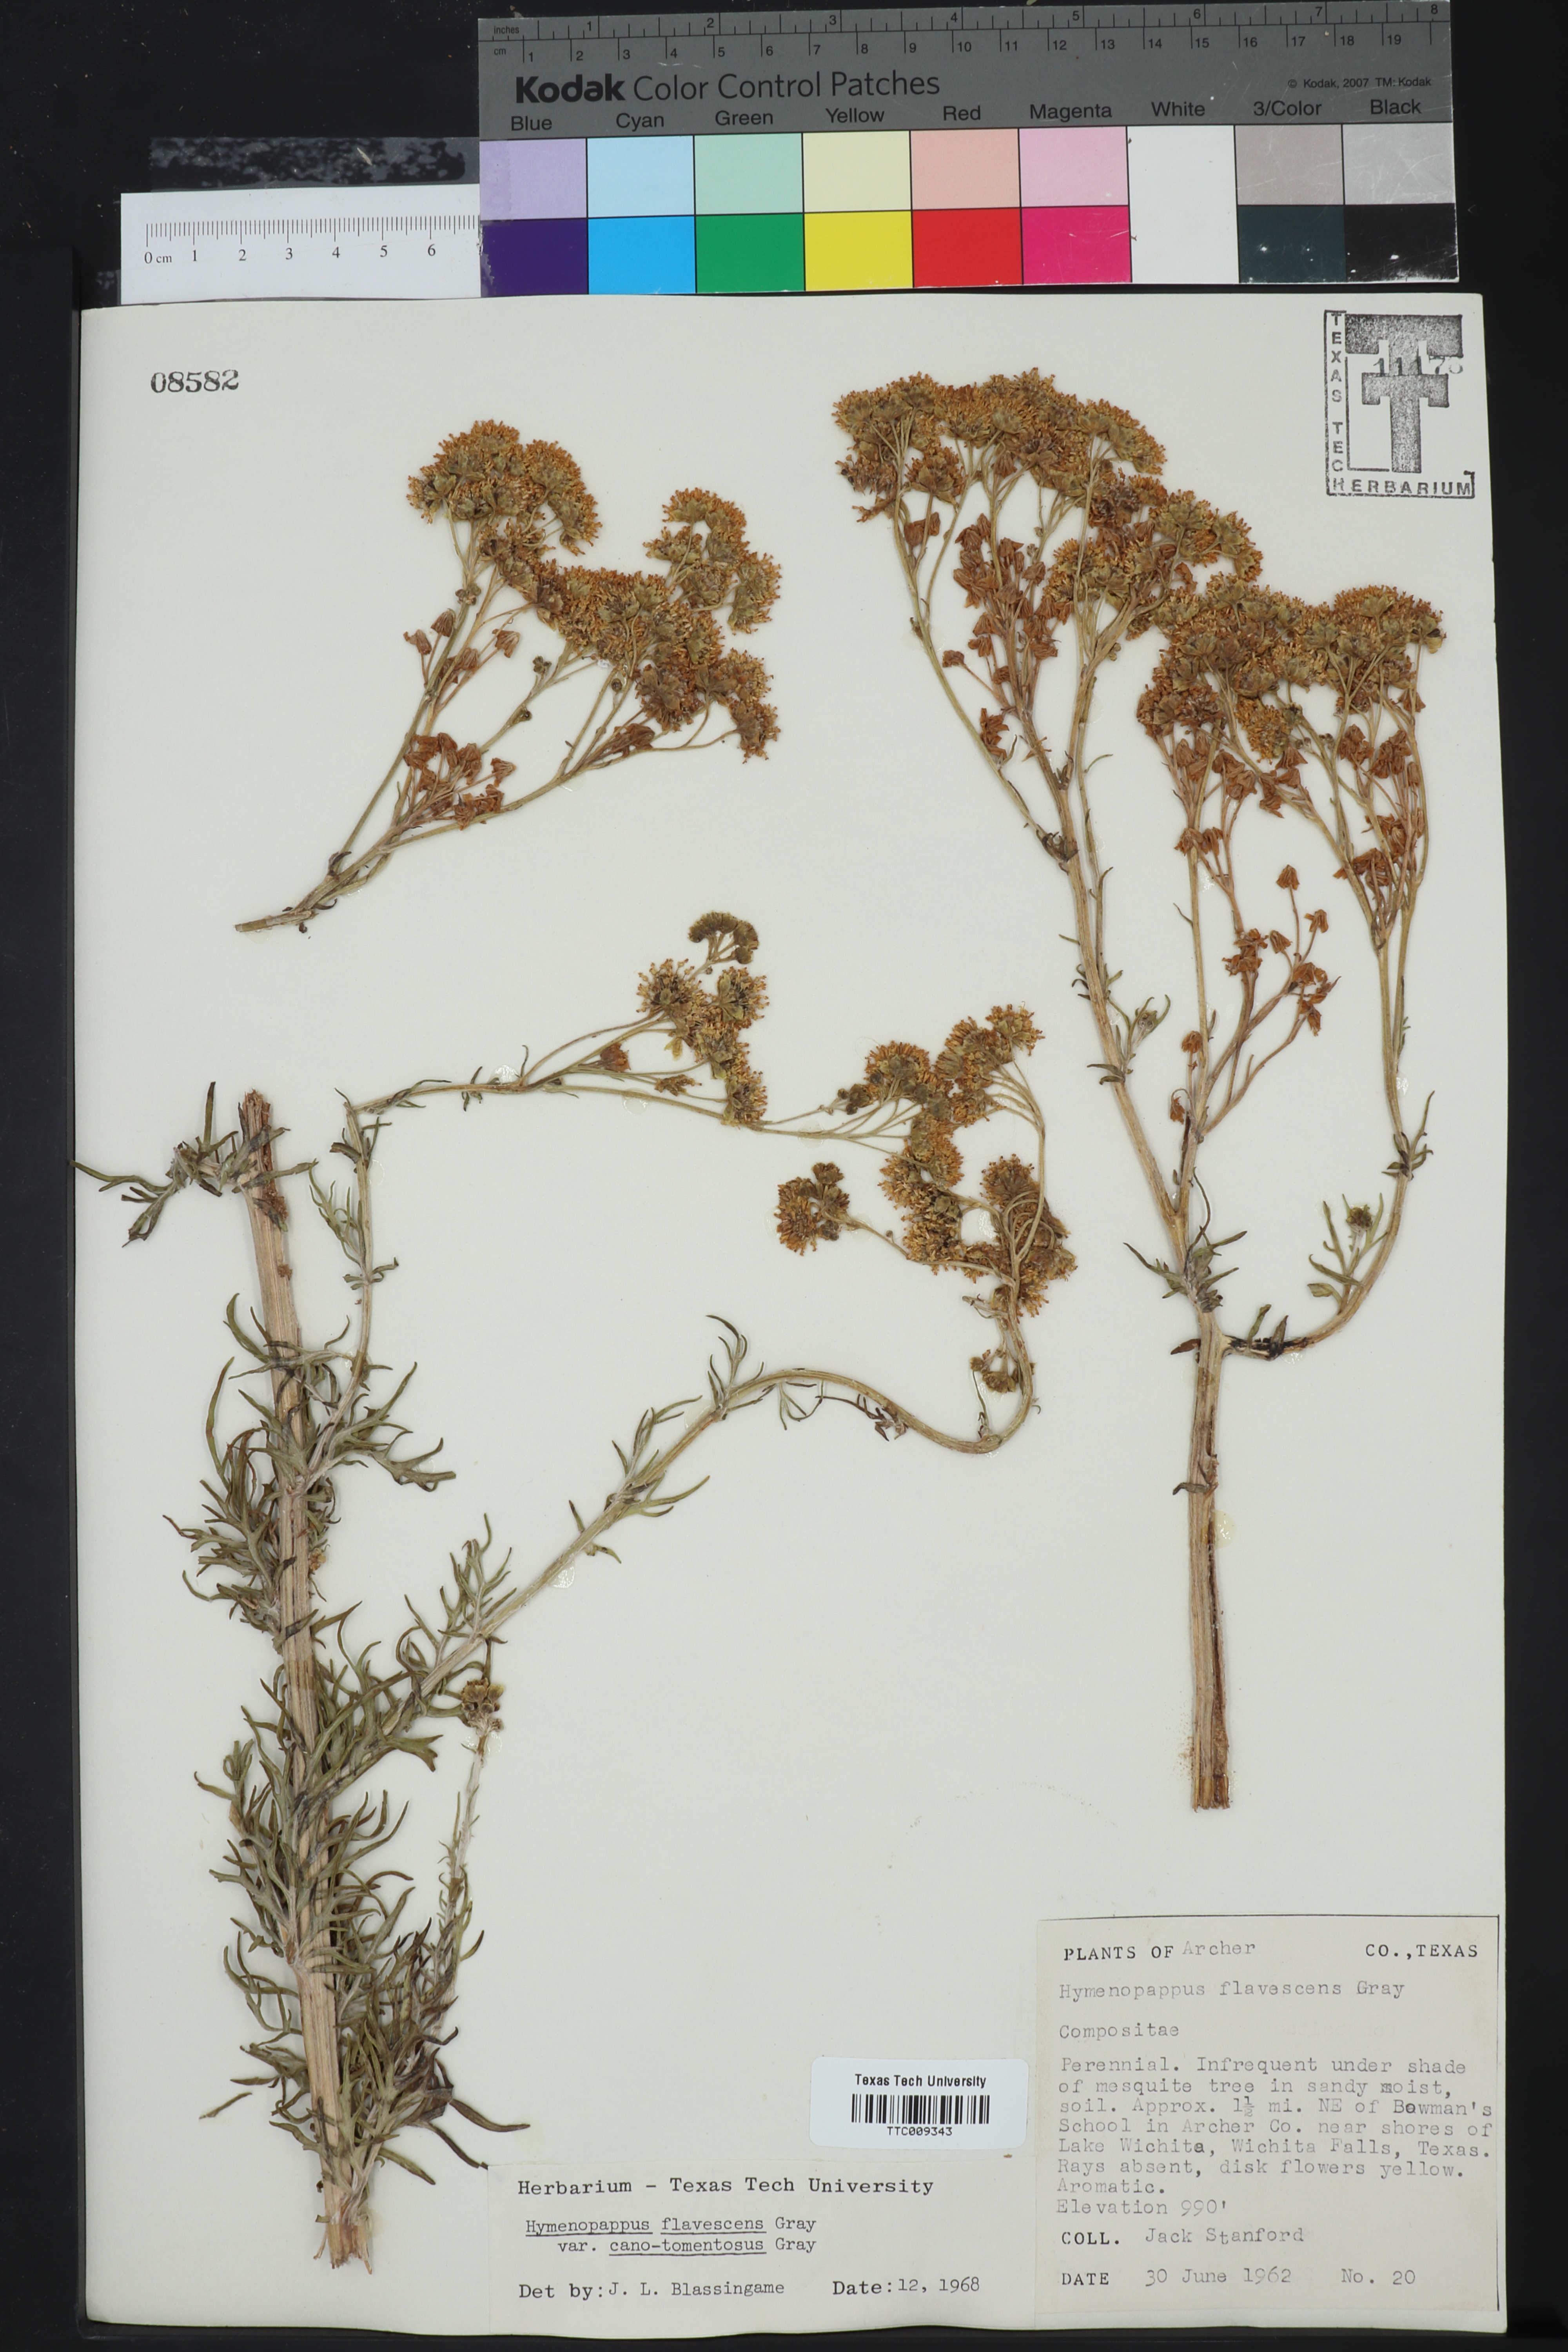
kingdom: Plantae
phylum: Tracheophyta
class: Magnoliopsida
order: Asterales
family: Asteraceae
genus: Hymenopappus
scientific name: Hymenopappus flavescens
